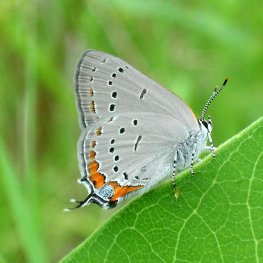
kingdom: Animalia
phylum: Arthropoda
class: Insecta
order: Lepidoptera
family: Lycaenidae
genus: Strymon
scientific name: Strymon acadica
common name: Acadian Hairstreak
